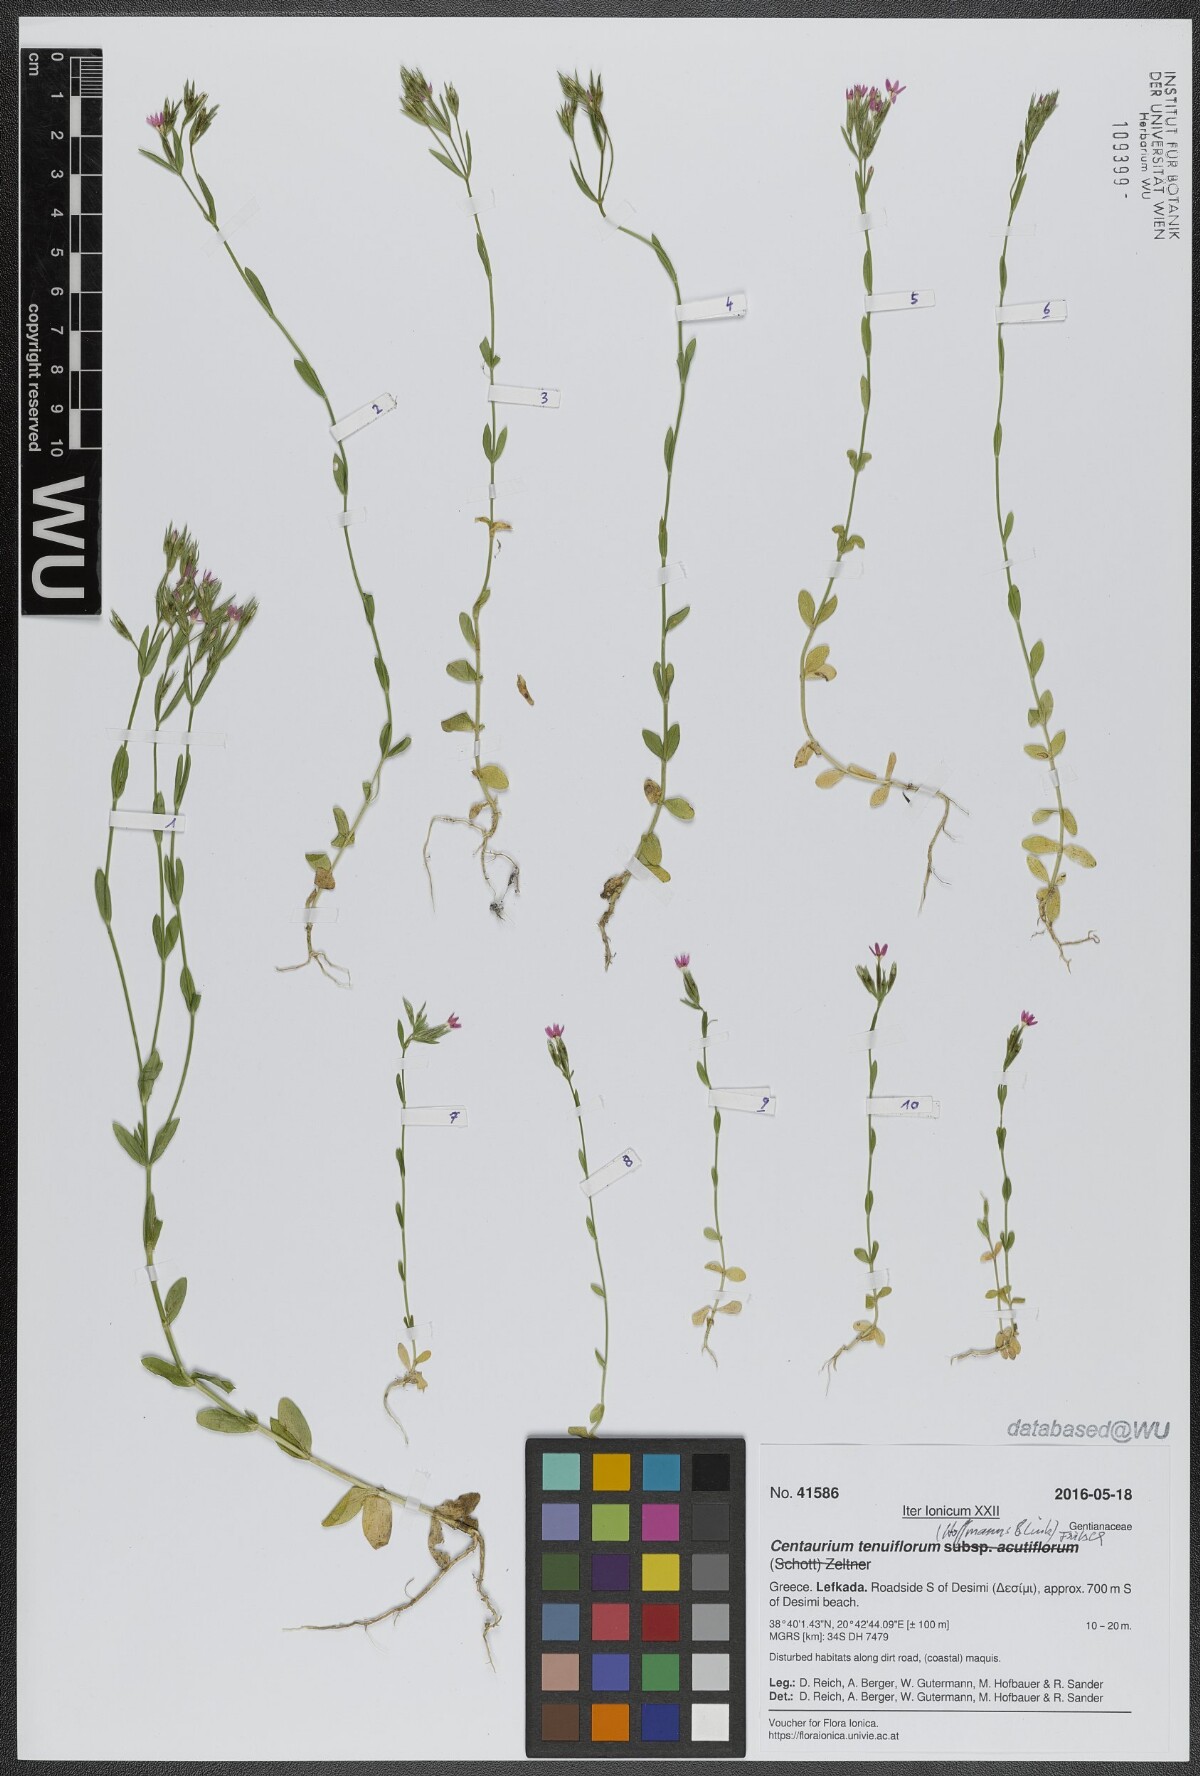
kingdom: Plantae
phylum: Tracheophyta
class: Magnoliopsida
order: Gentianales
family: Gentianaceae
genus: Centaurium
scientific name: Centaurium tenuiflorum
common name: Slender centaury
